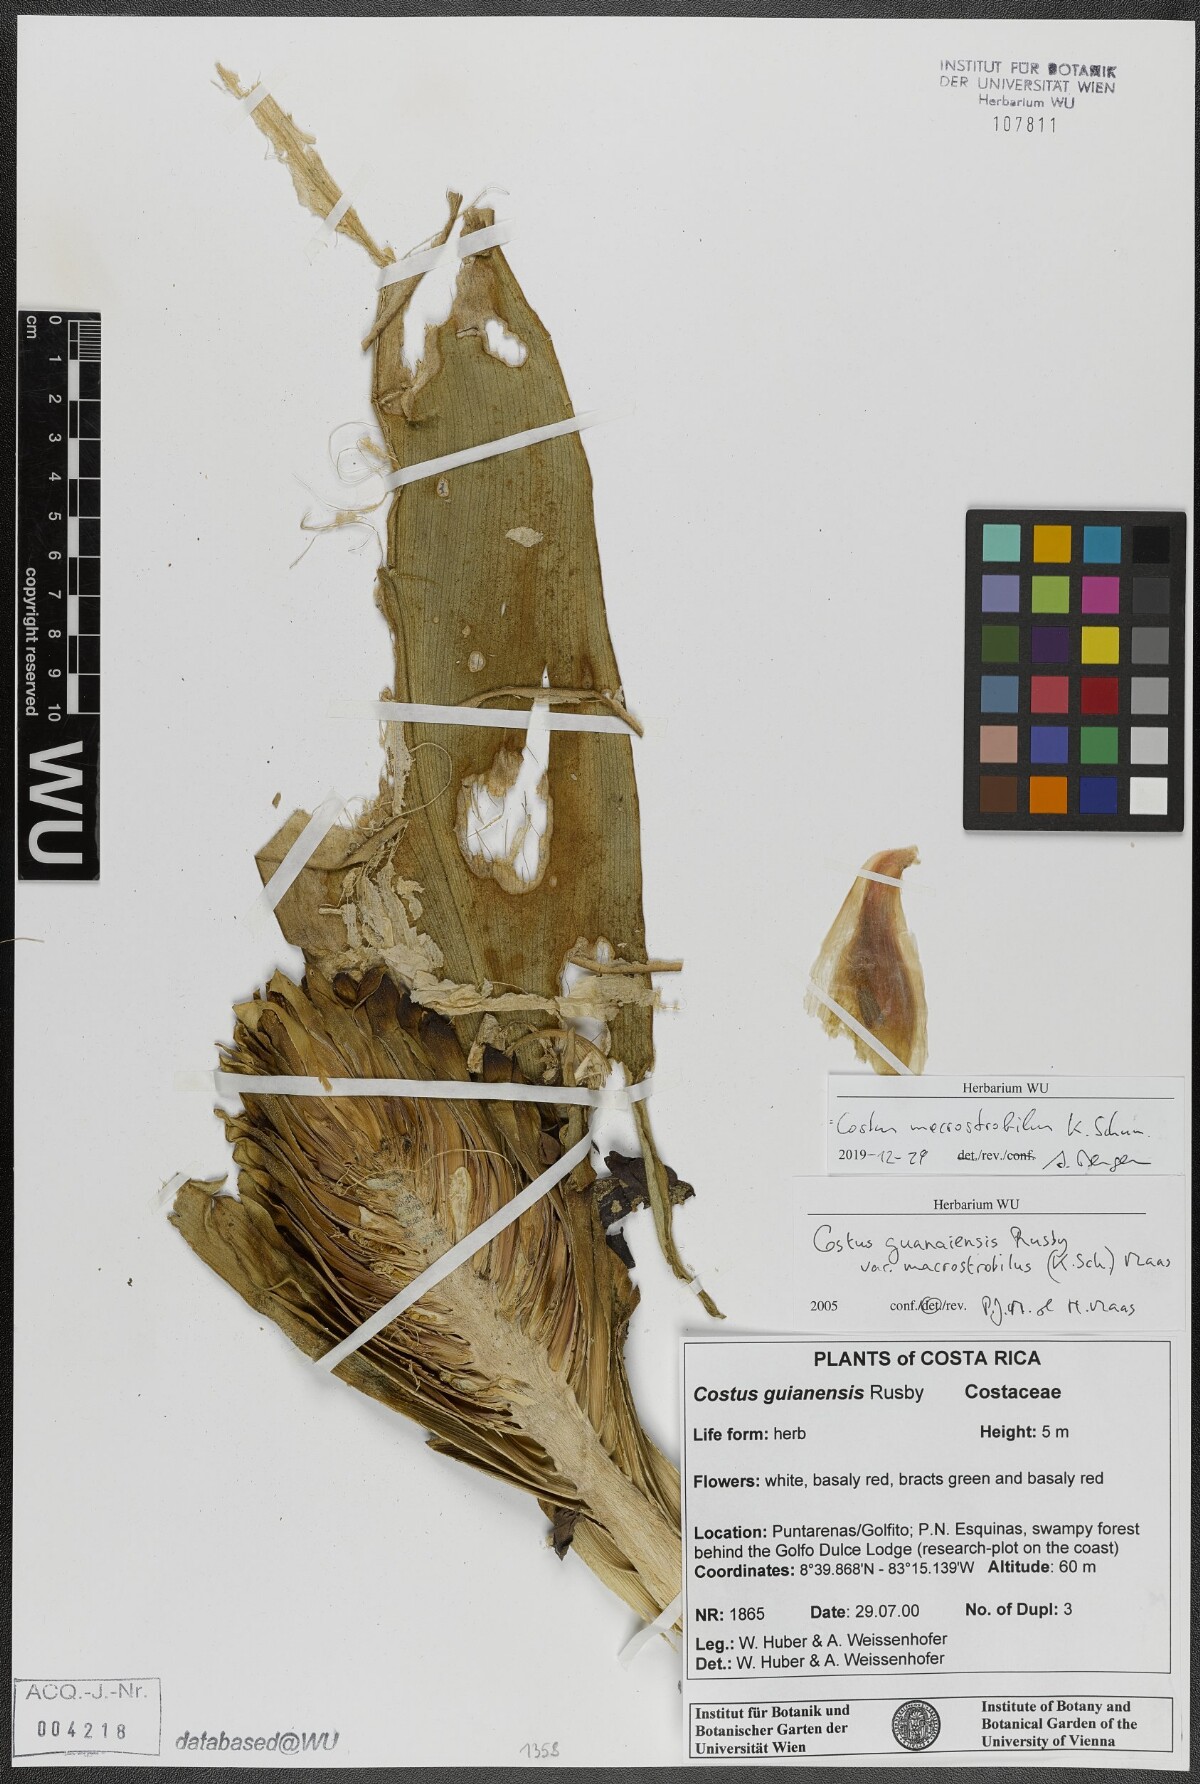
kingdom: Plantae
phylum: Tracheophyta
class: Liliopsida
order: Zingiberales
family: Costaceae
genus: Costus
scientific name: Costus guanaiensis
